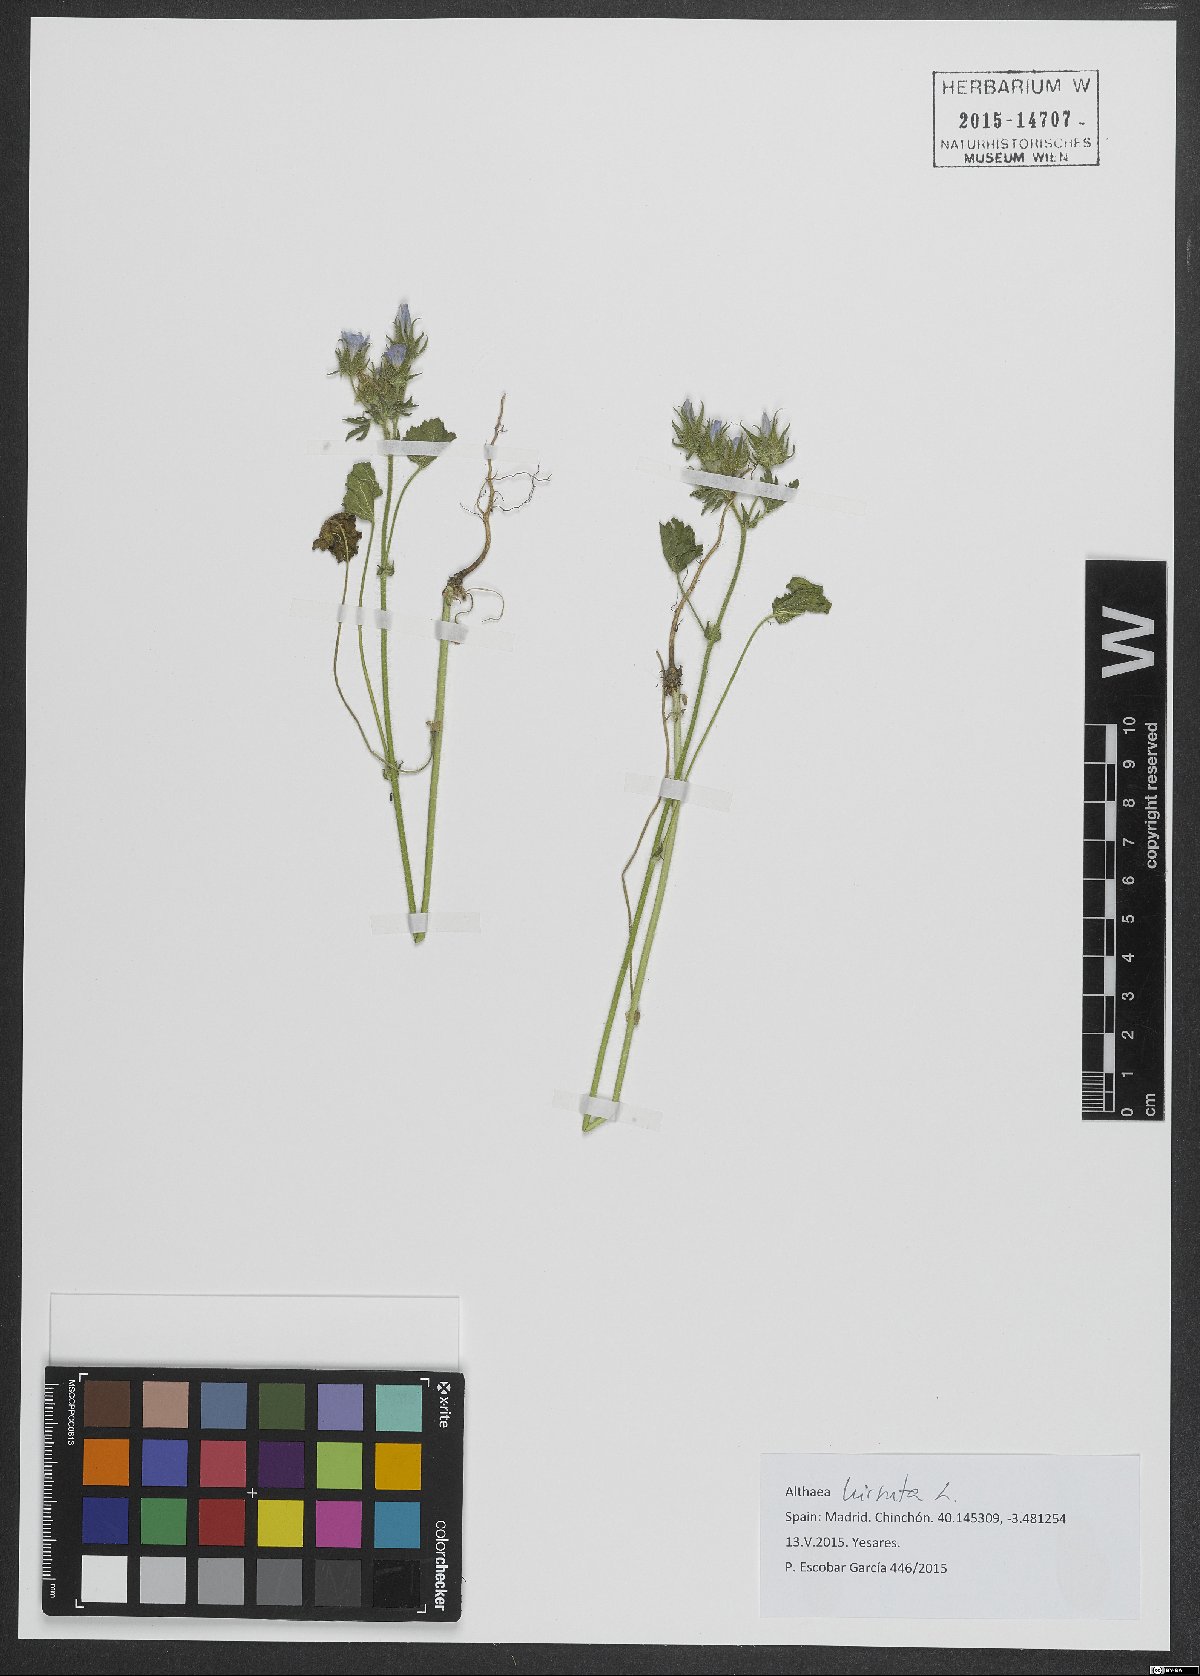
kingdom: Plantae
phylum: Tracheophyta
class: Magnoliopsida
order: Malvales
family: Malvaceae
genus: Althaea
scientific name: Althaea hirsuta
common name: Rough marsh-mallow
